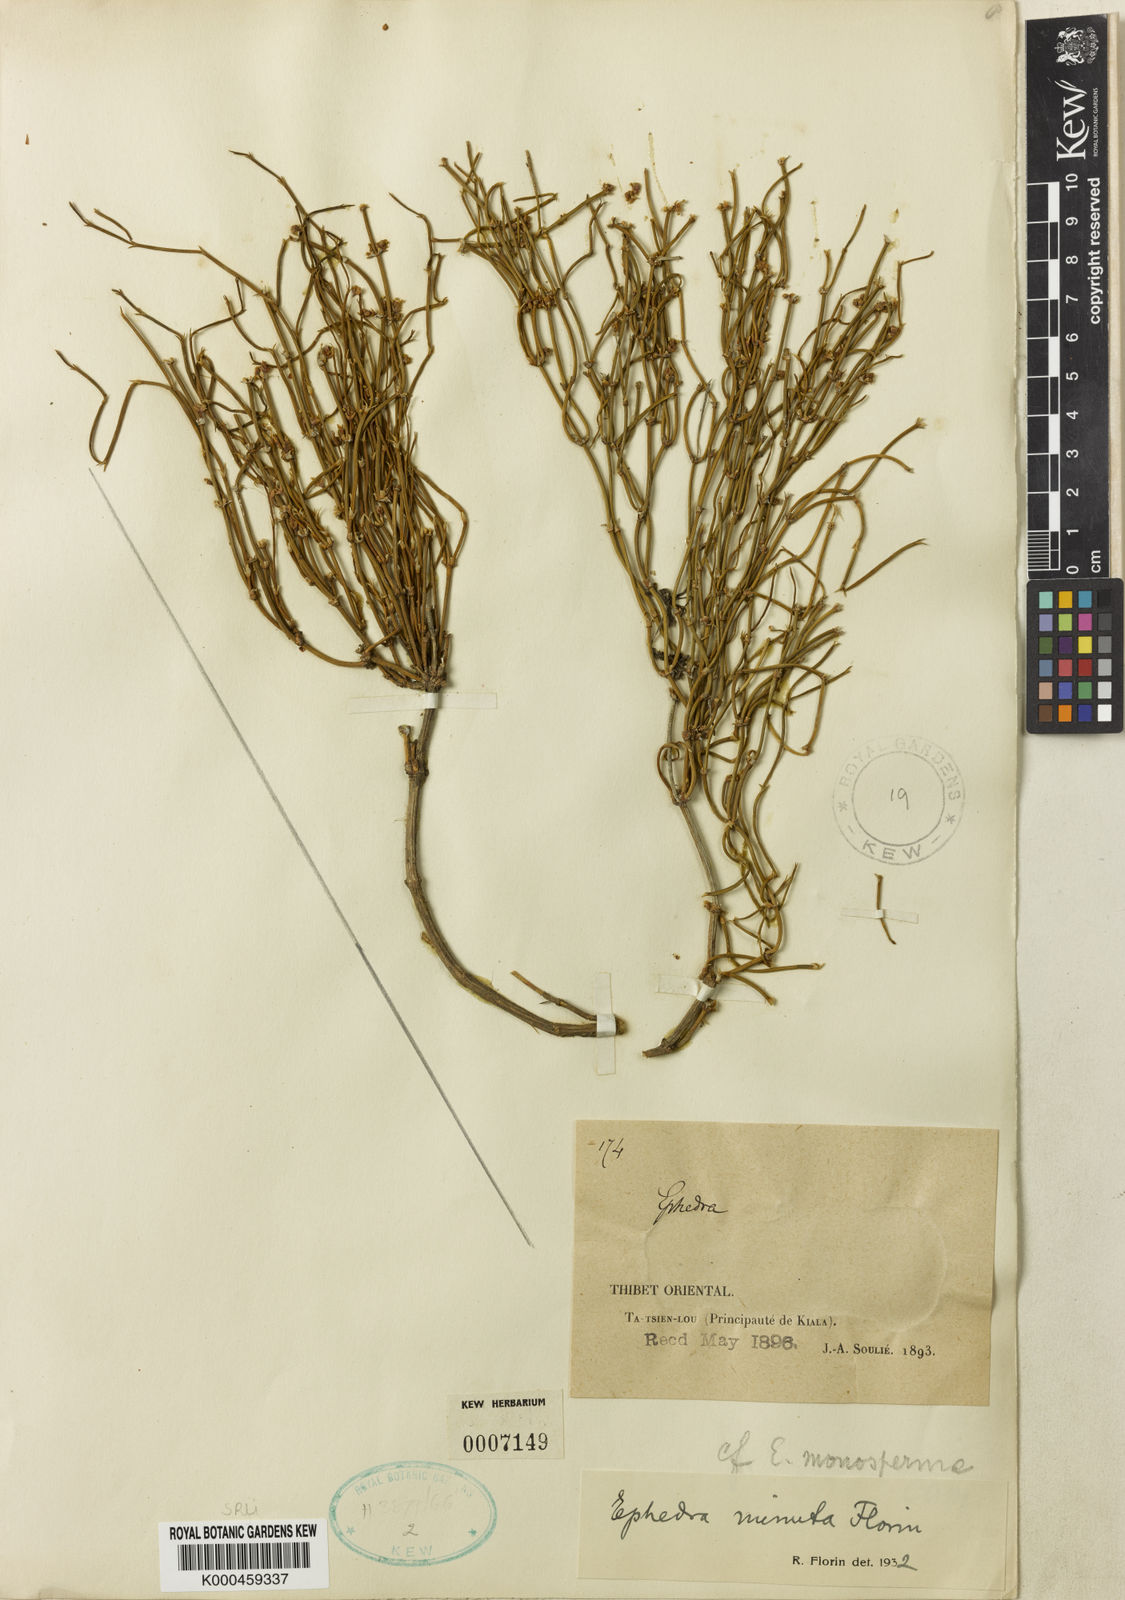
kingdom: Plantae
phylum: Tracheophyta
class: Gnetopsida
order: Ephedrales
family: Ephedraceae
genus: Ephedra
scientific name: Ephedra minuta
